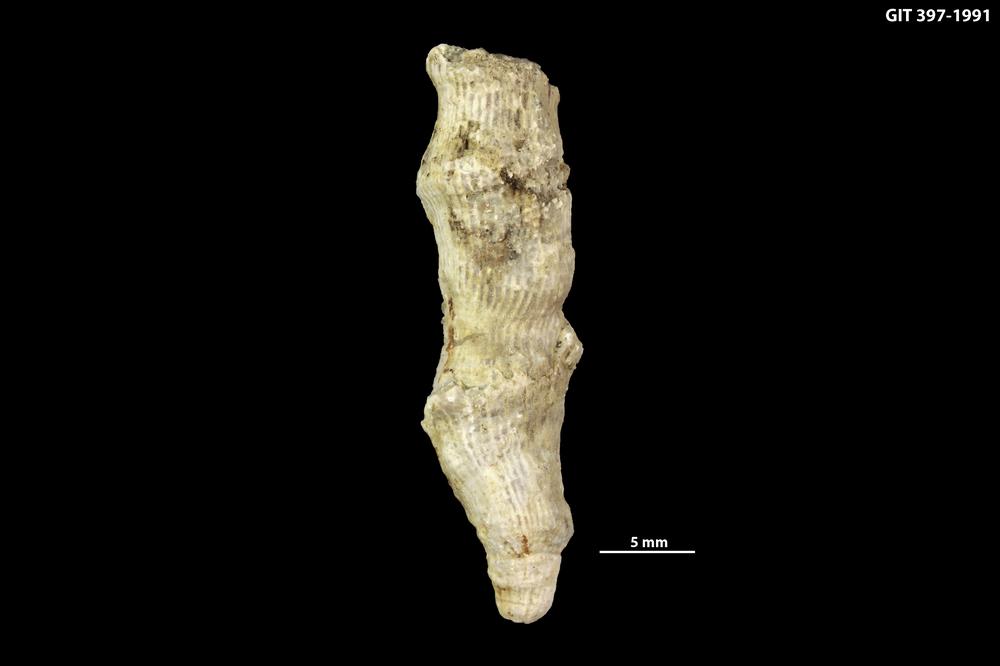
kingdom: Animalia
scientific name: Animalia
